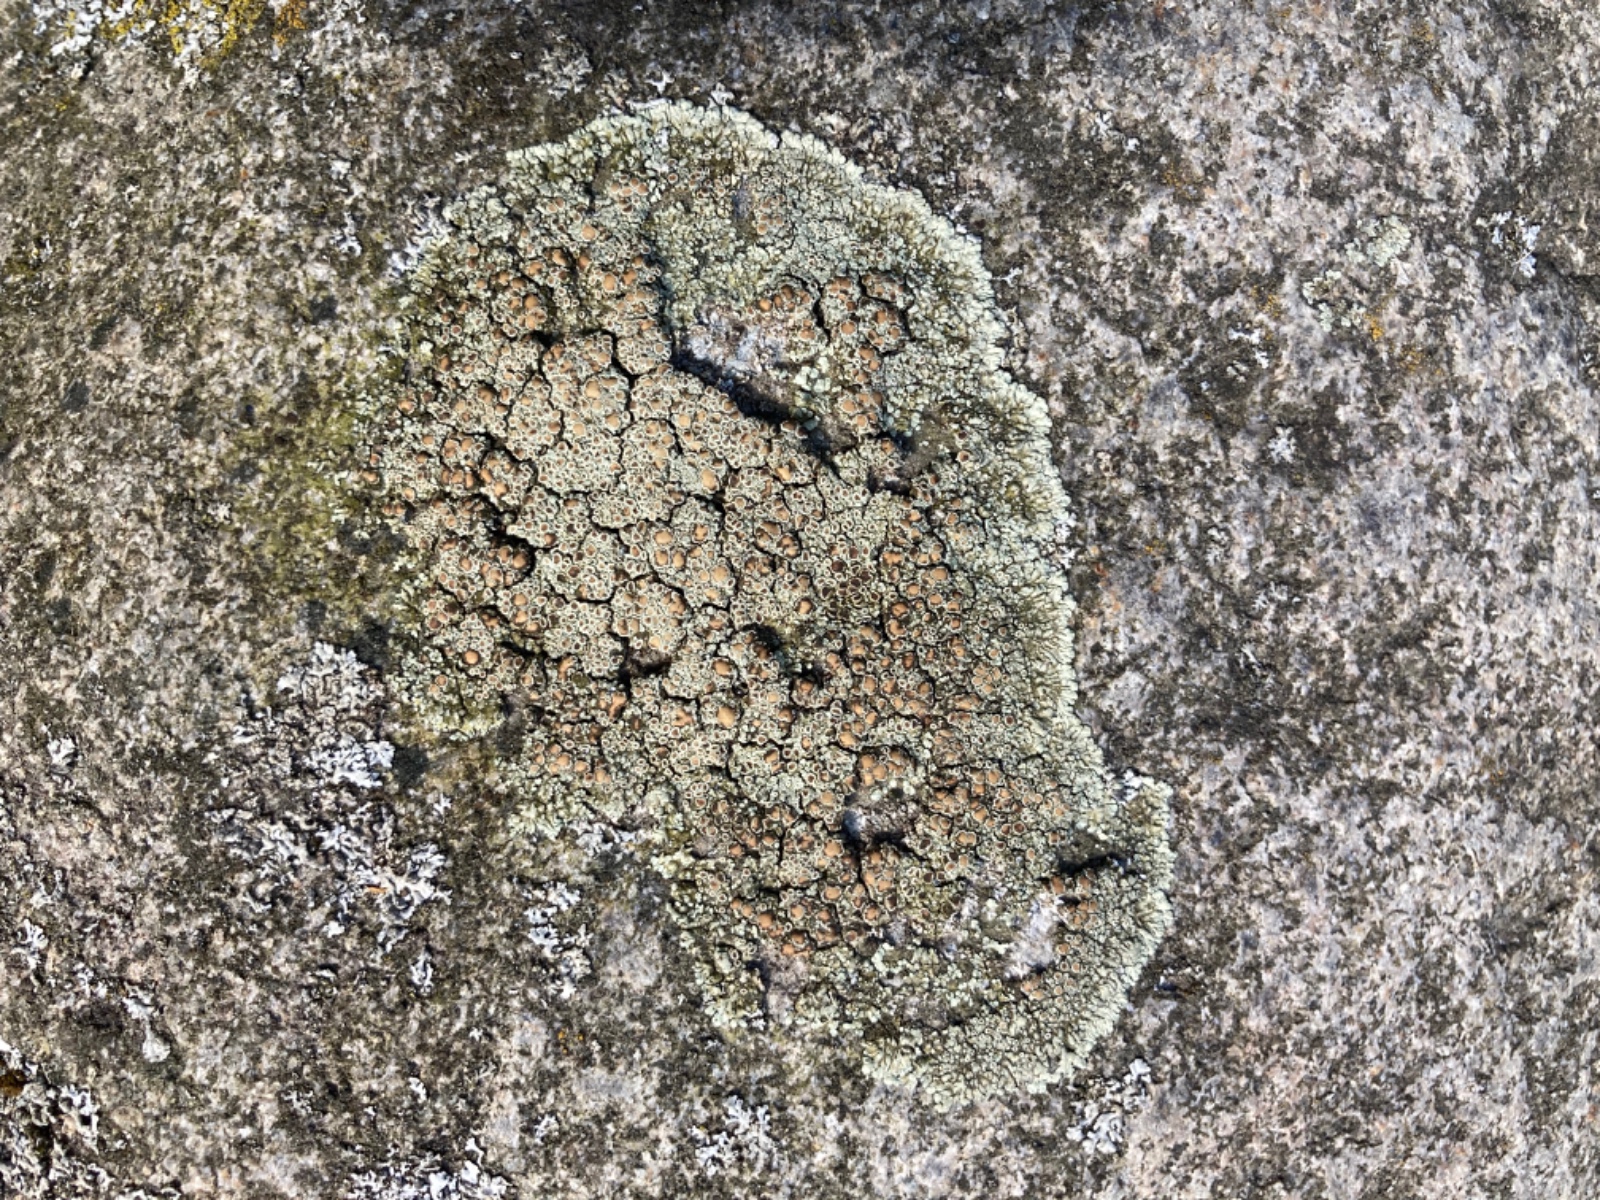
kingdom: Fungi
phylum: Ascomycota
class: Lecanoromycetes
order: Lecanorales
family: Lecanoraceae
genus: Protoparmeliopsis
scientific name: Protoparmeliopsis muralis
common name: randfliget kantskivelav
